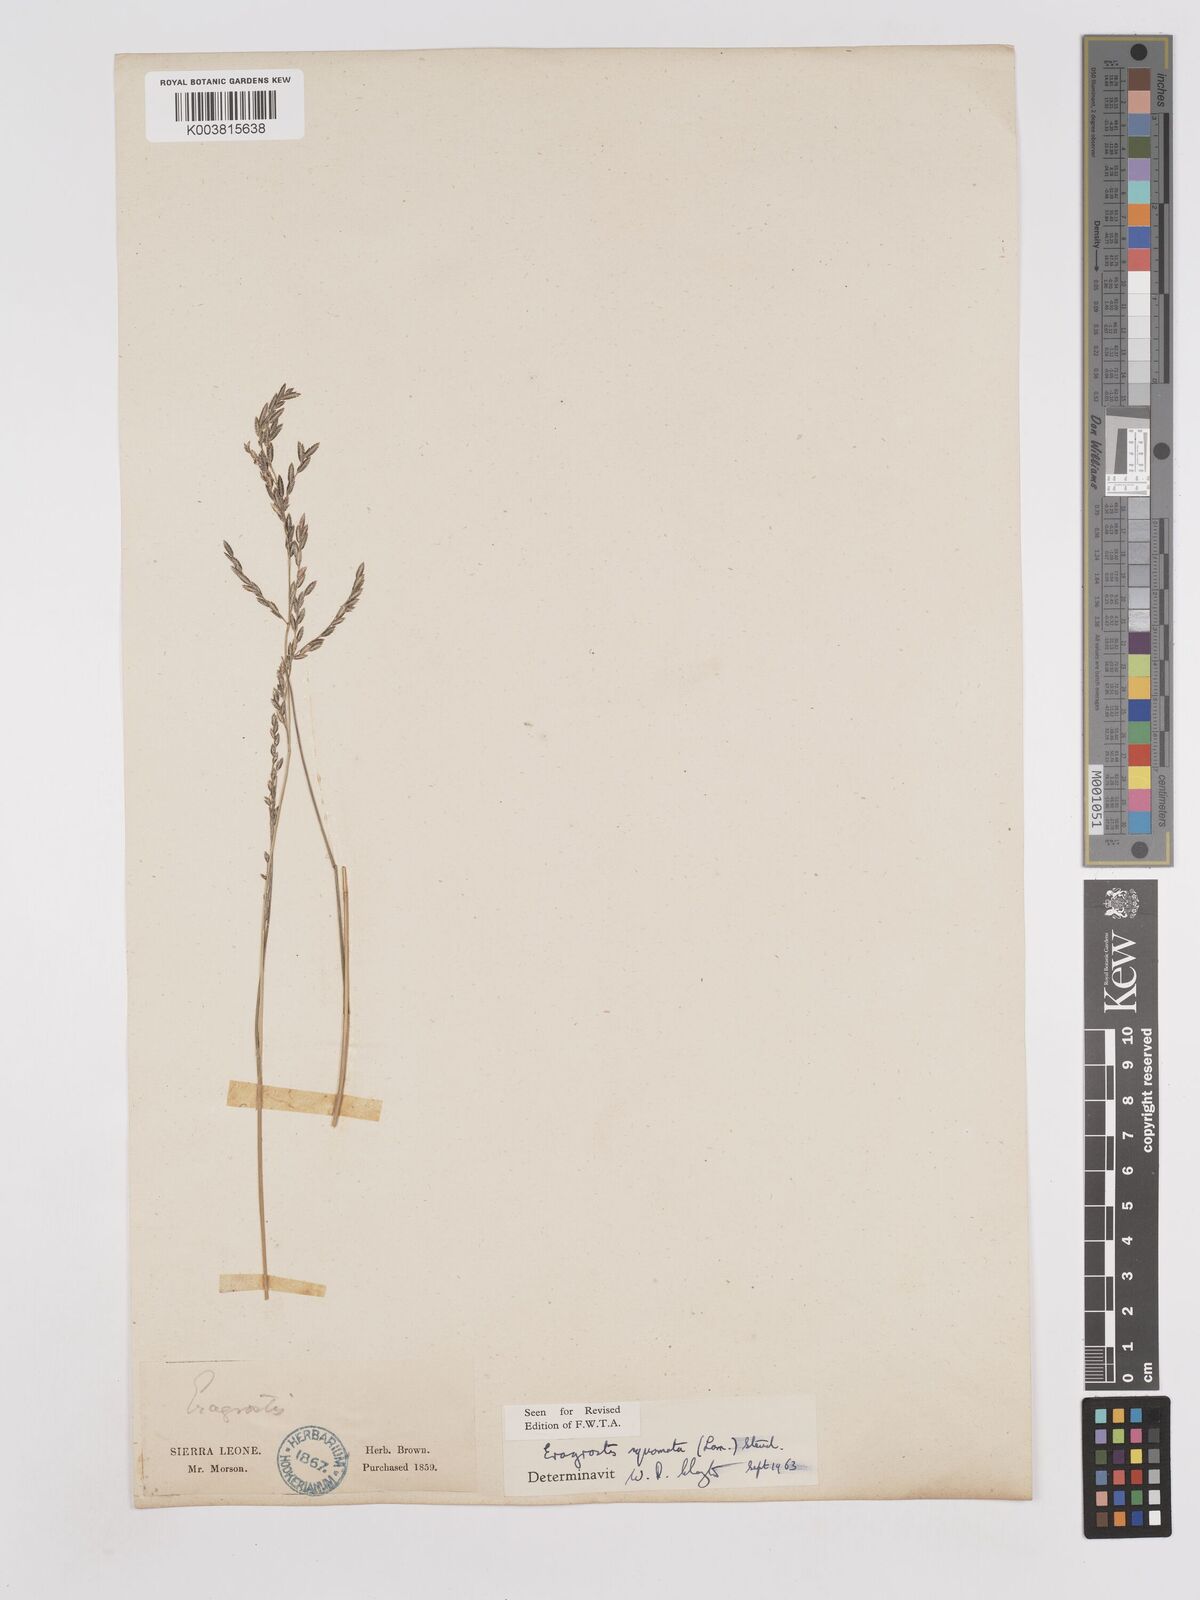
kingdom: Plantae
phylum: Tracheophyta
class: Liliopsida
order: Poales
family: Poaceae
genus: Eragrostis
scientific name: Eragrostis squamata
